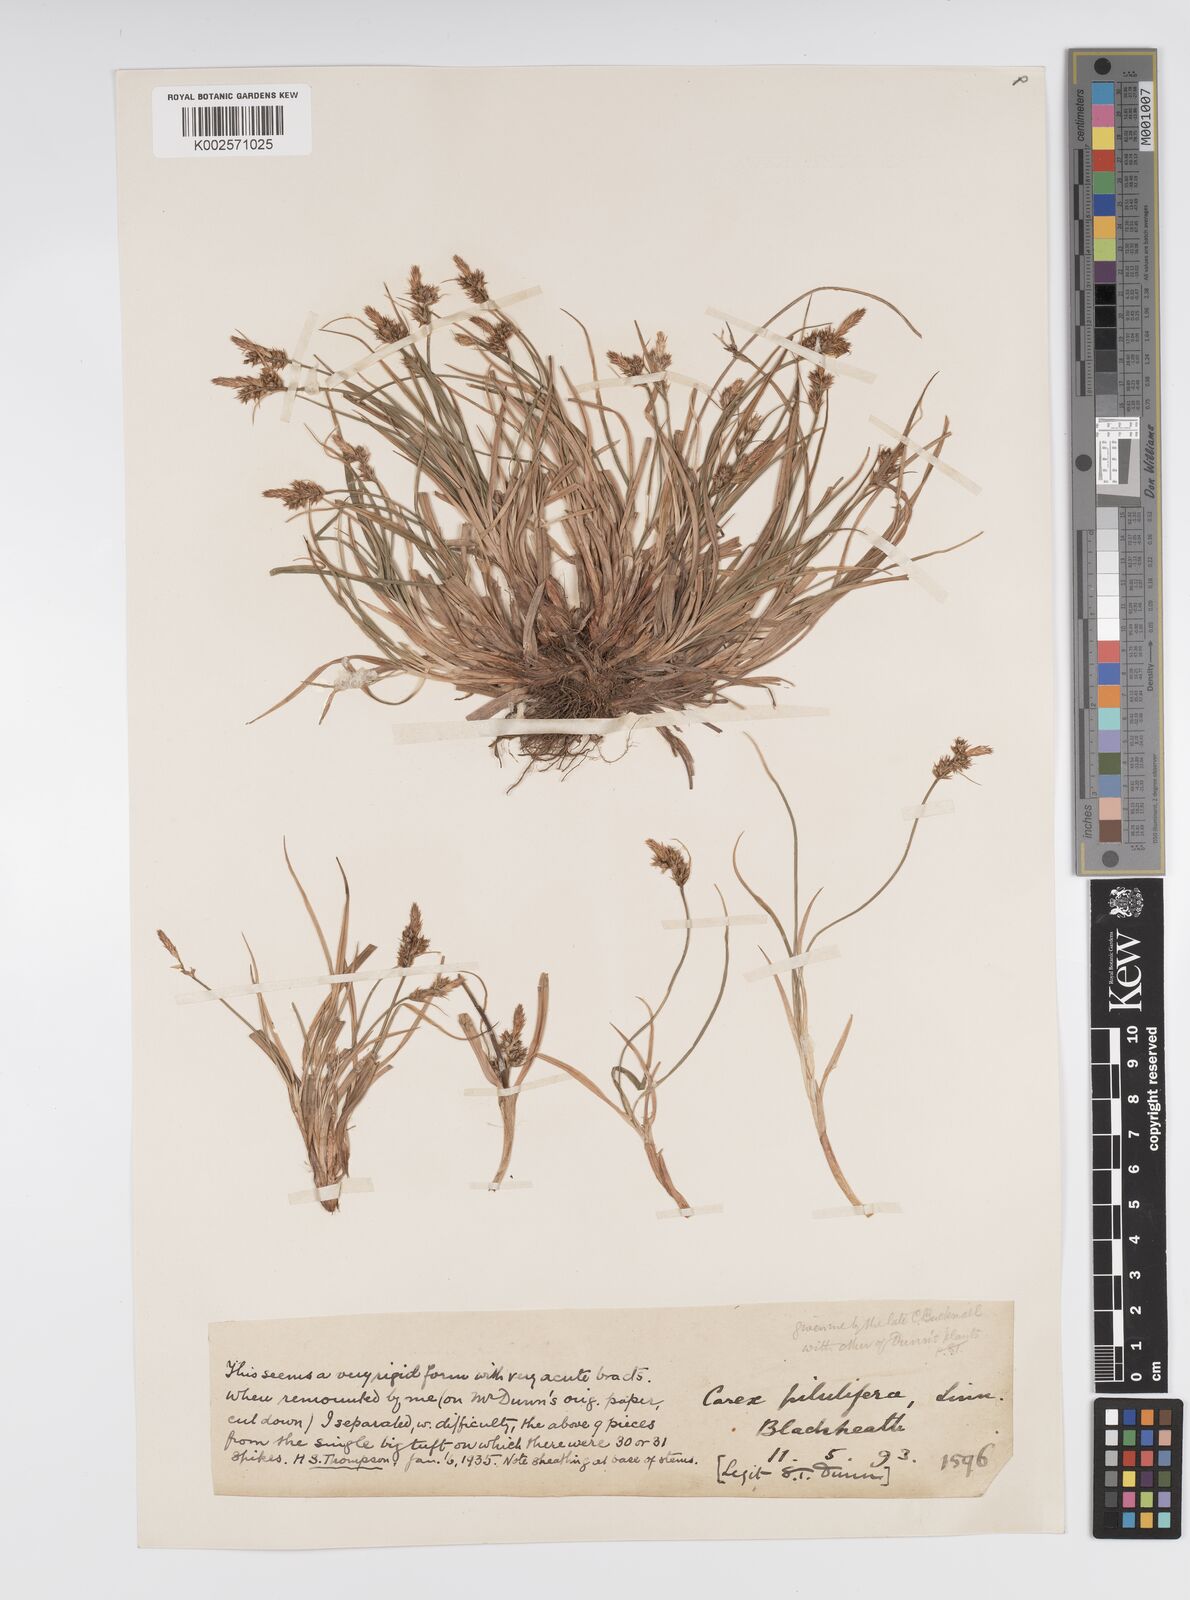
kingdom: Plantae
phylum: Tracheophyta
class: Liliopsida
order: Poales
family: Cyperaceae
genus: Carex
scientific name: Carex pilulifera
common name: Pill sedge
